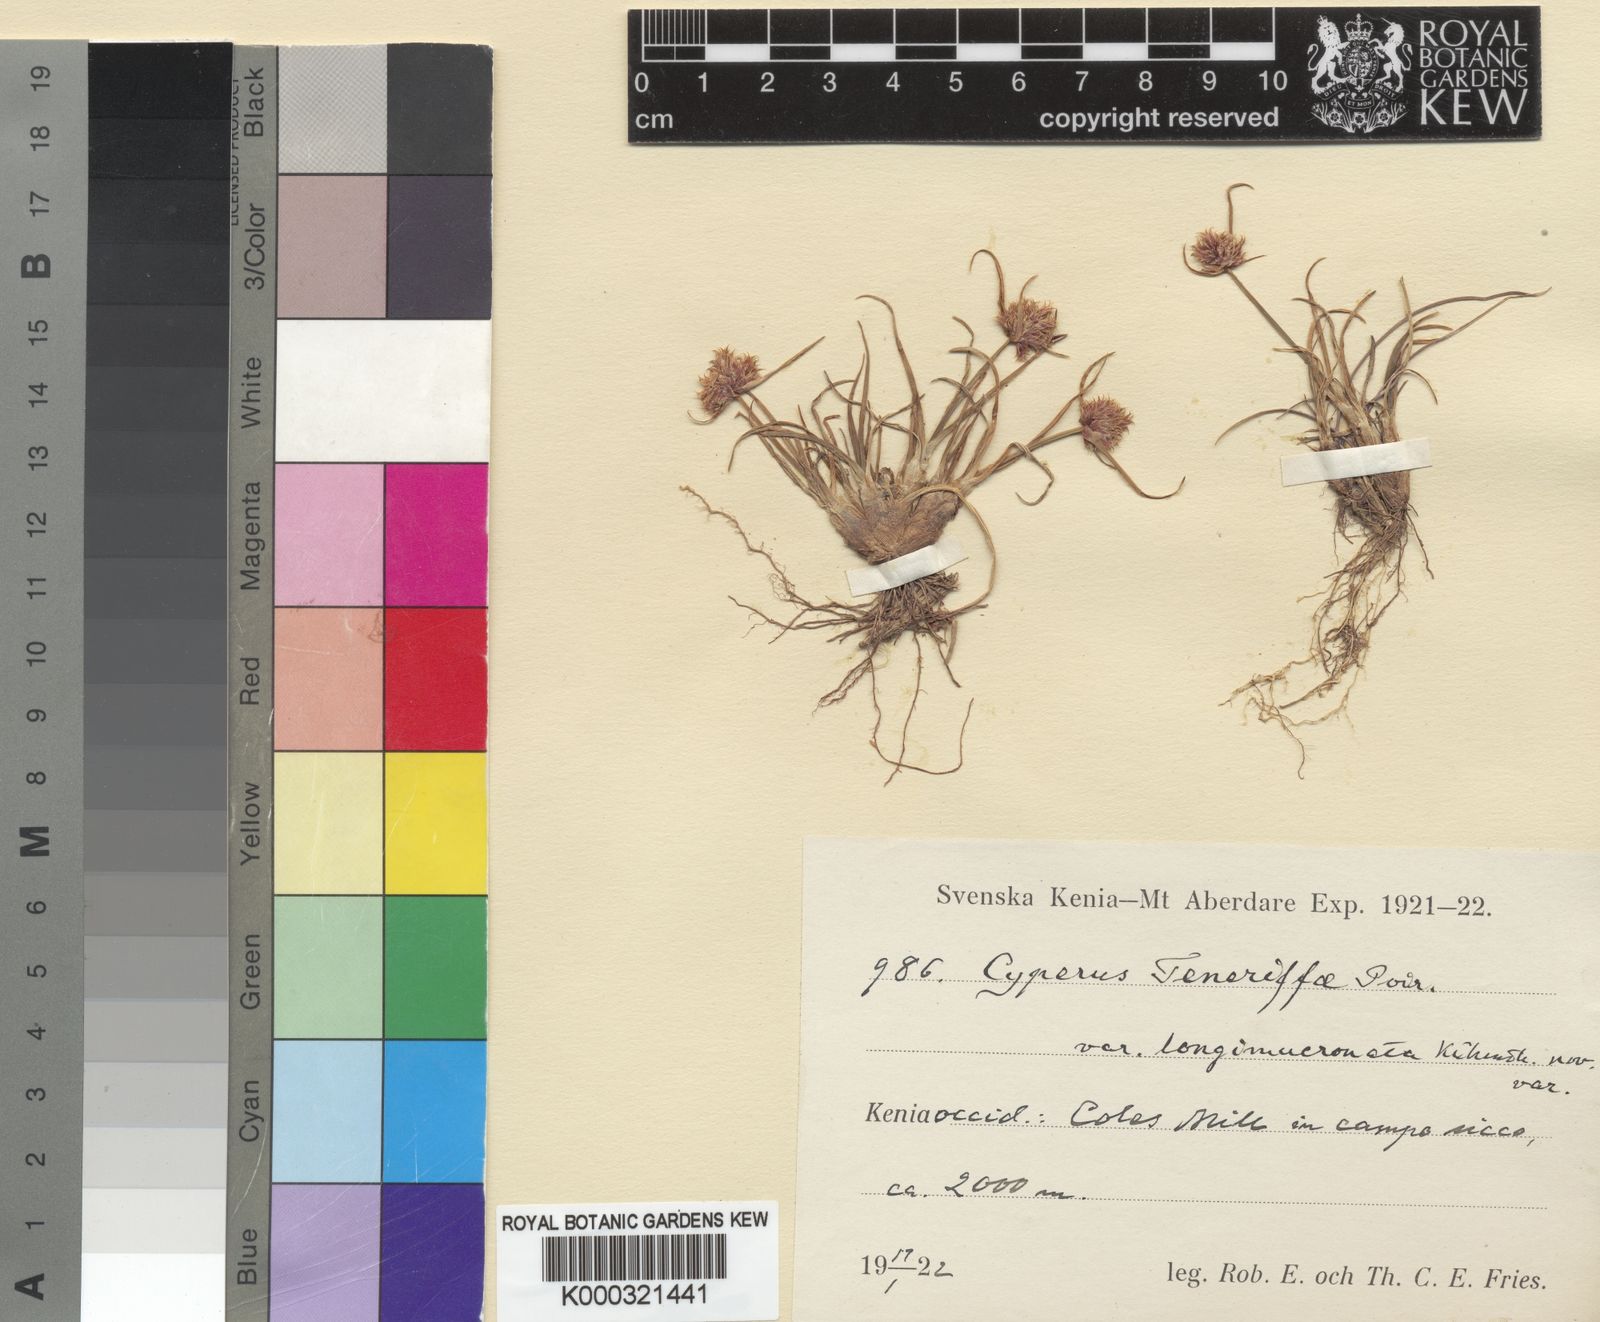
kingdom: Plantae
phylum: Tracheophyta
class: Liliopsida
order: Poales
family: Cyperaceae
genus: Cyperus
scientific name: Cyperus rubicundus
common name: Coco-grass
